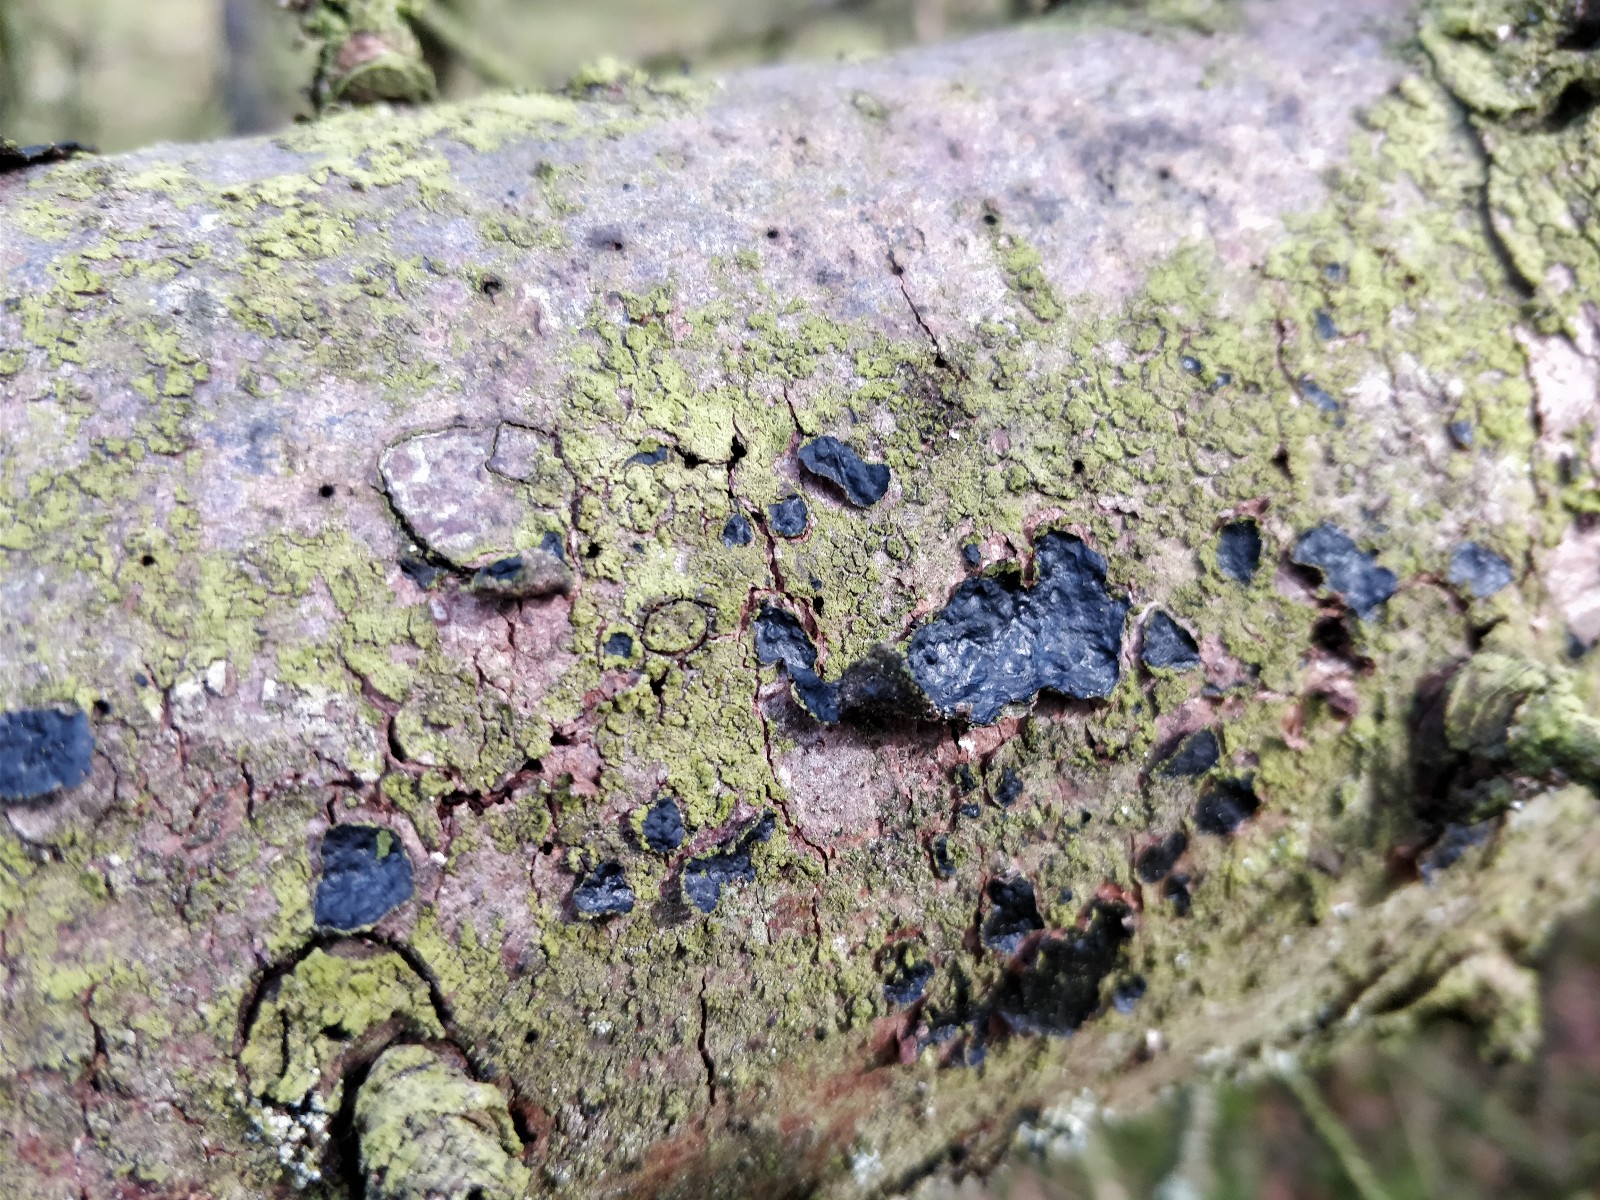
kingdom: Fungi
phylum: Basidiomycota
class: Agaricomycetes
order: Auriculariales
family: Auriculariaceae
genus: Exidia
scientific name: Exidia pithya
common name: gran-bævretop
